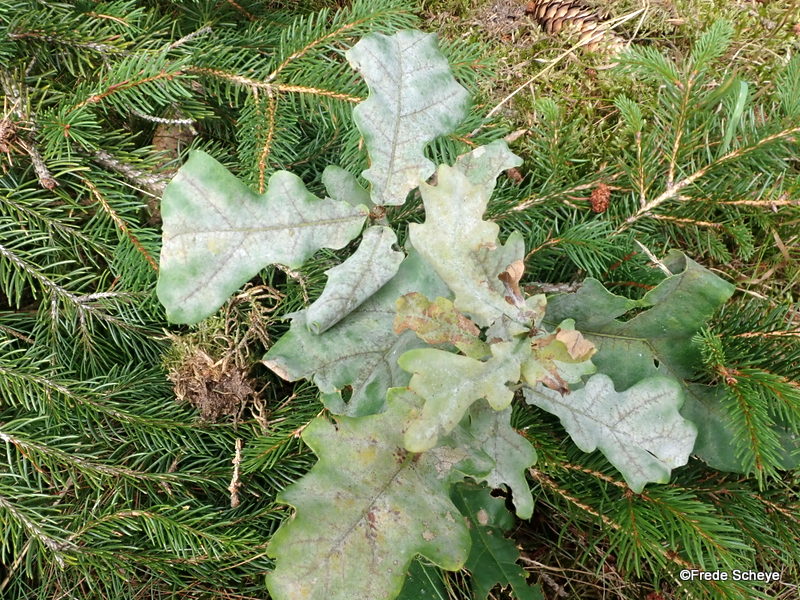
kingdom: Fungi
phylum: Ascomycota
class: Leotiomycetes
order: Helotiales
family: Erysiphaceae
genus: Erysiphe
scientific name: Erysiphe alphitoides
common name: ege-meldug
